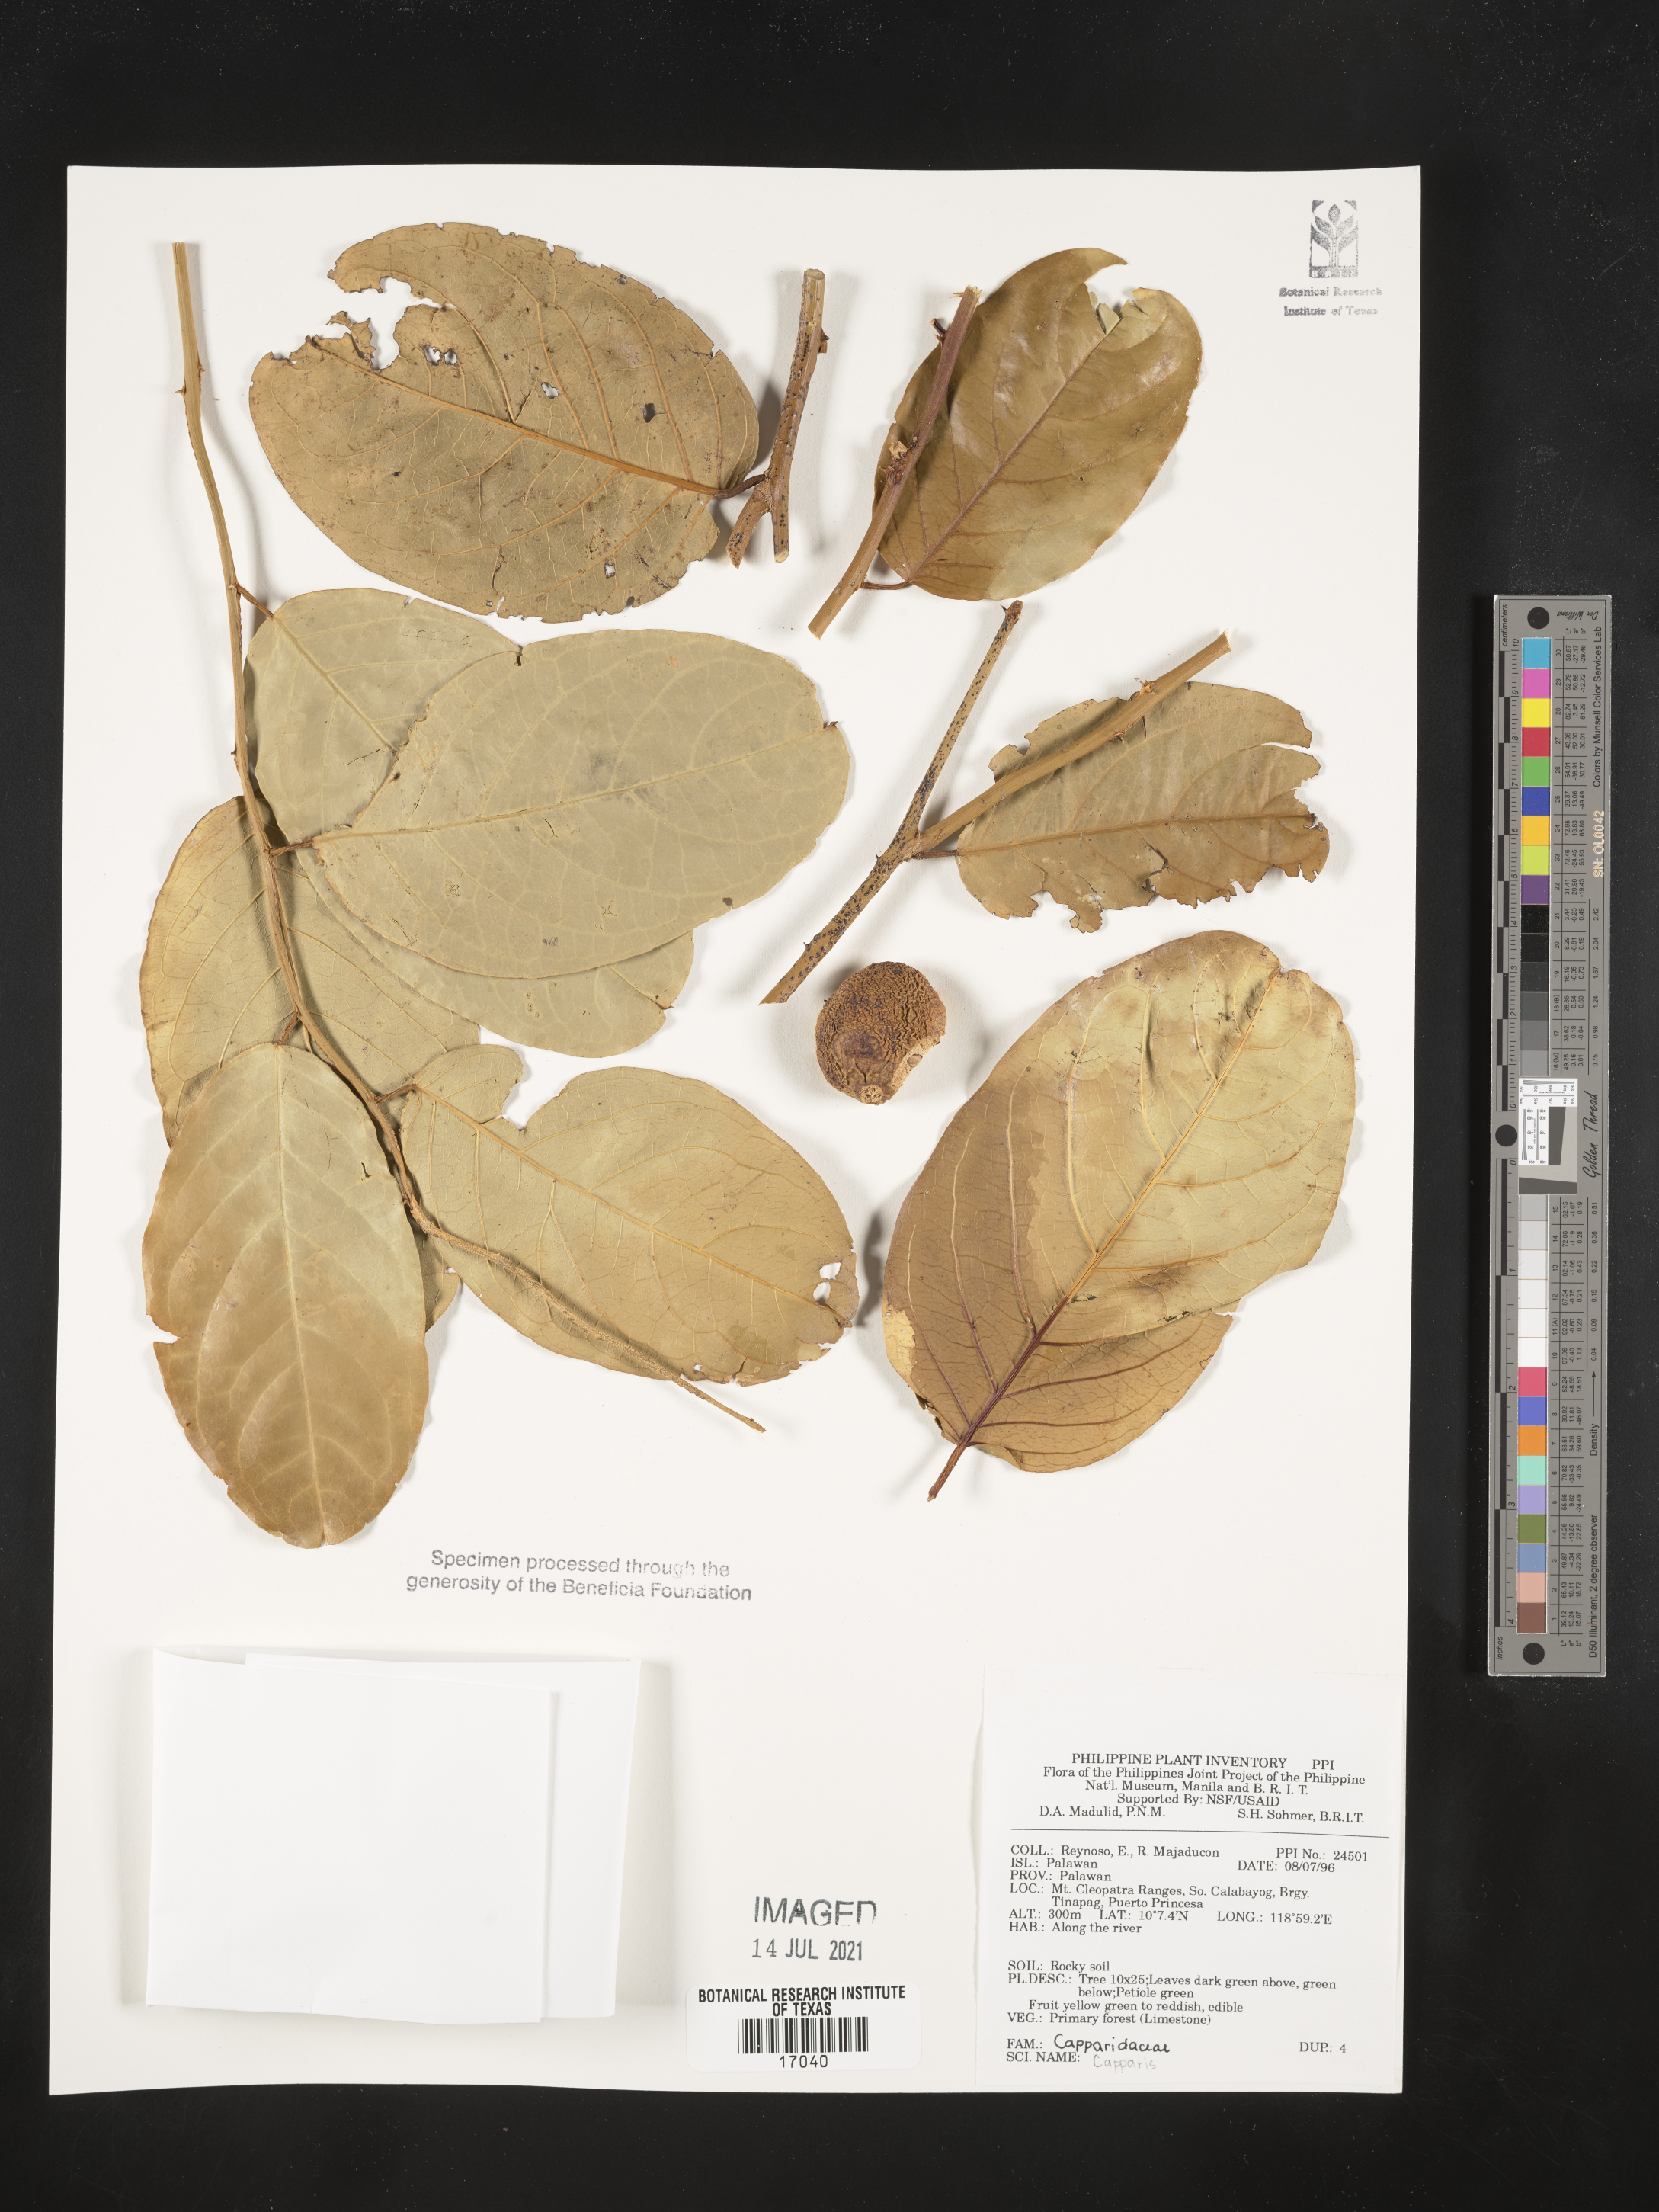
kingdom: Plantae
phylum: Tracheophyta
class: Magnoliopsida
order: Brassicales
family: Capparaceae
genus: Capparis
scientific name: Capparis
